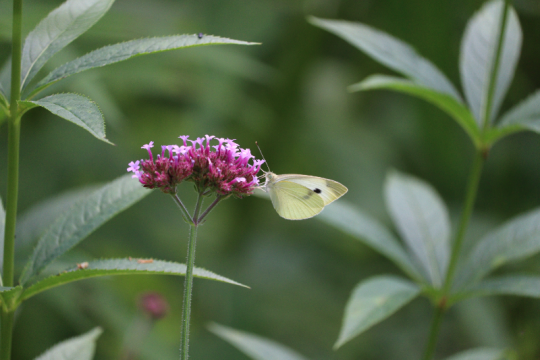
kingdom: Animalia
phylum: Arthropoda
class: Insecta
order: Lepidoptera
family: Pieridae
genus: Pieris
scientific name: Pieris rapae
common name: Cabbage White
